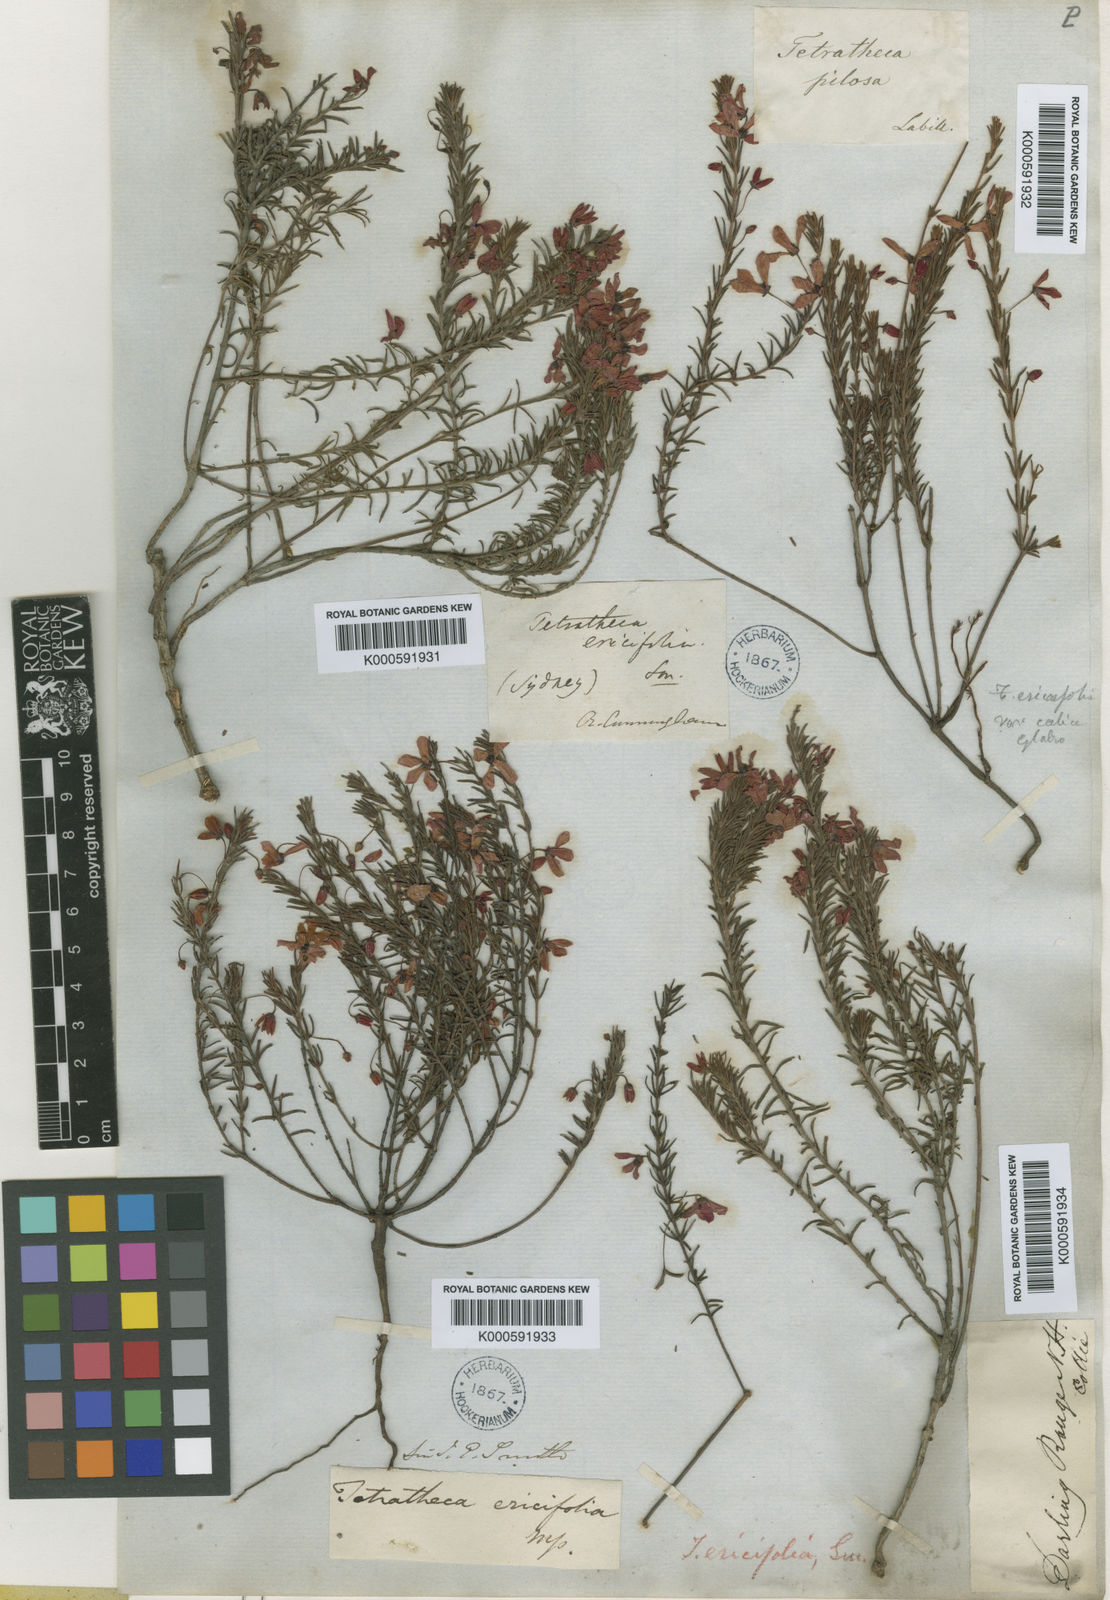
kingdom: Plantae
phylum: Tracheophyta
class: Magnoliopsida
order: Oxalidales
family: Elaeocarpaceae
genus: Tetratheca
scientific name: Tetratheca ericifolia
